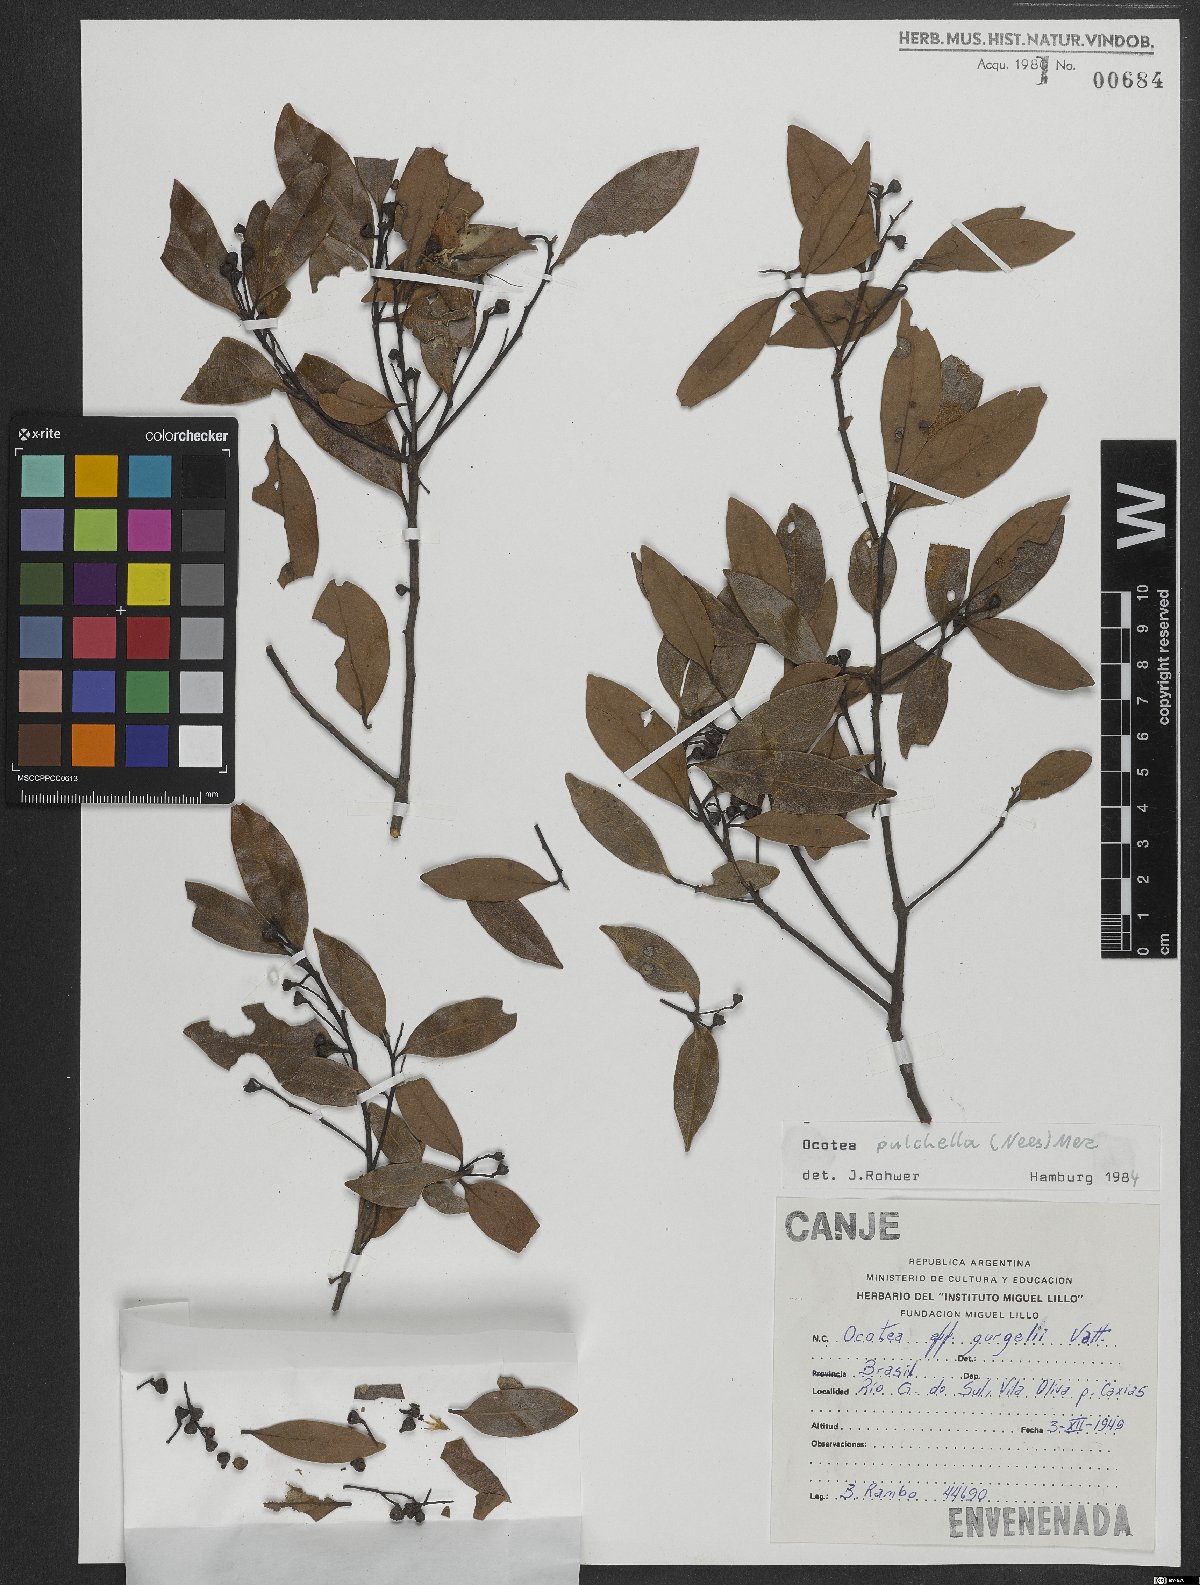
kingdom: Plantae
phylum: Tracheophyta
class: Magnoliopsida
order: Laurales
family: Lauraceae
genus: Mespilodaphne
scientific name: Mespilodaphne pulchella
